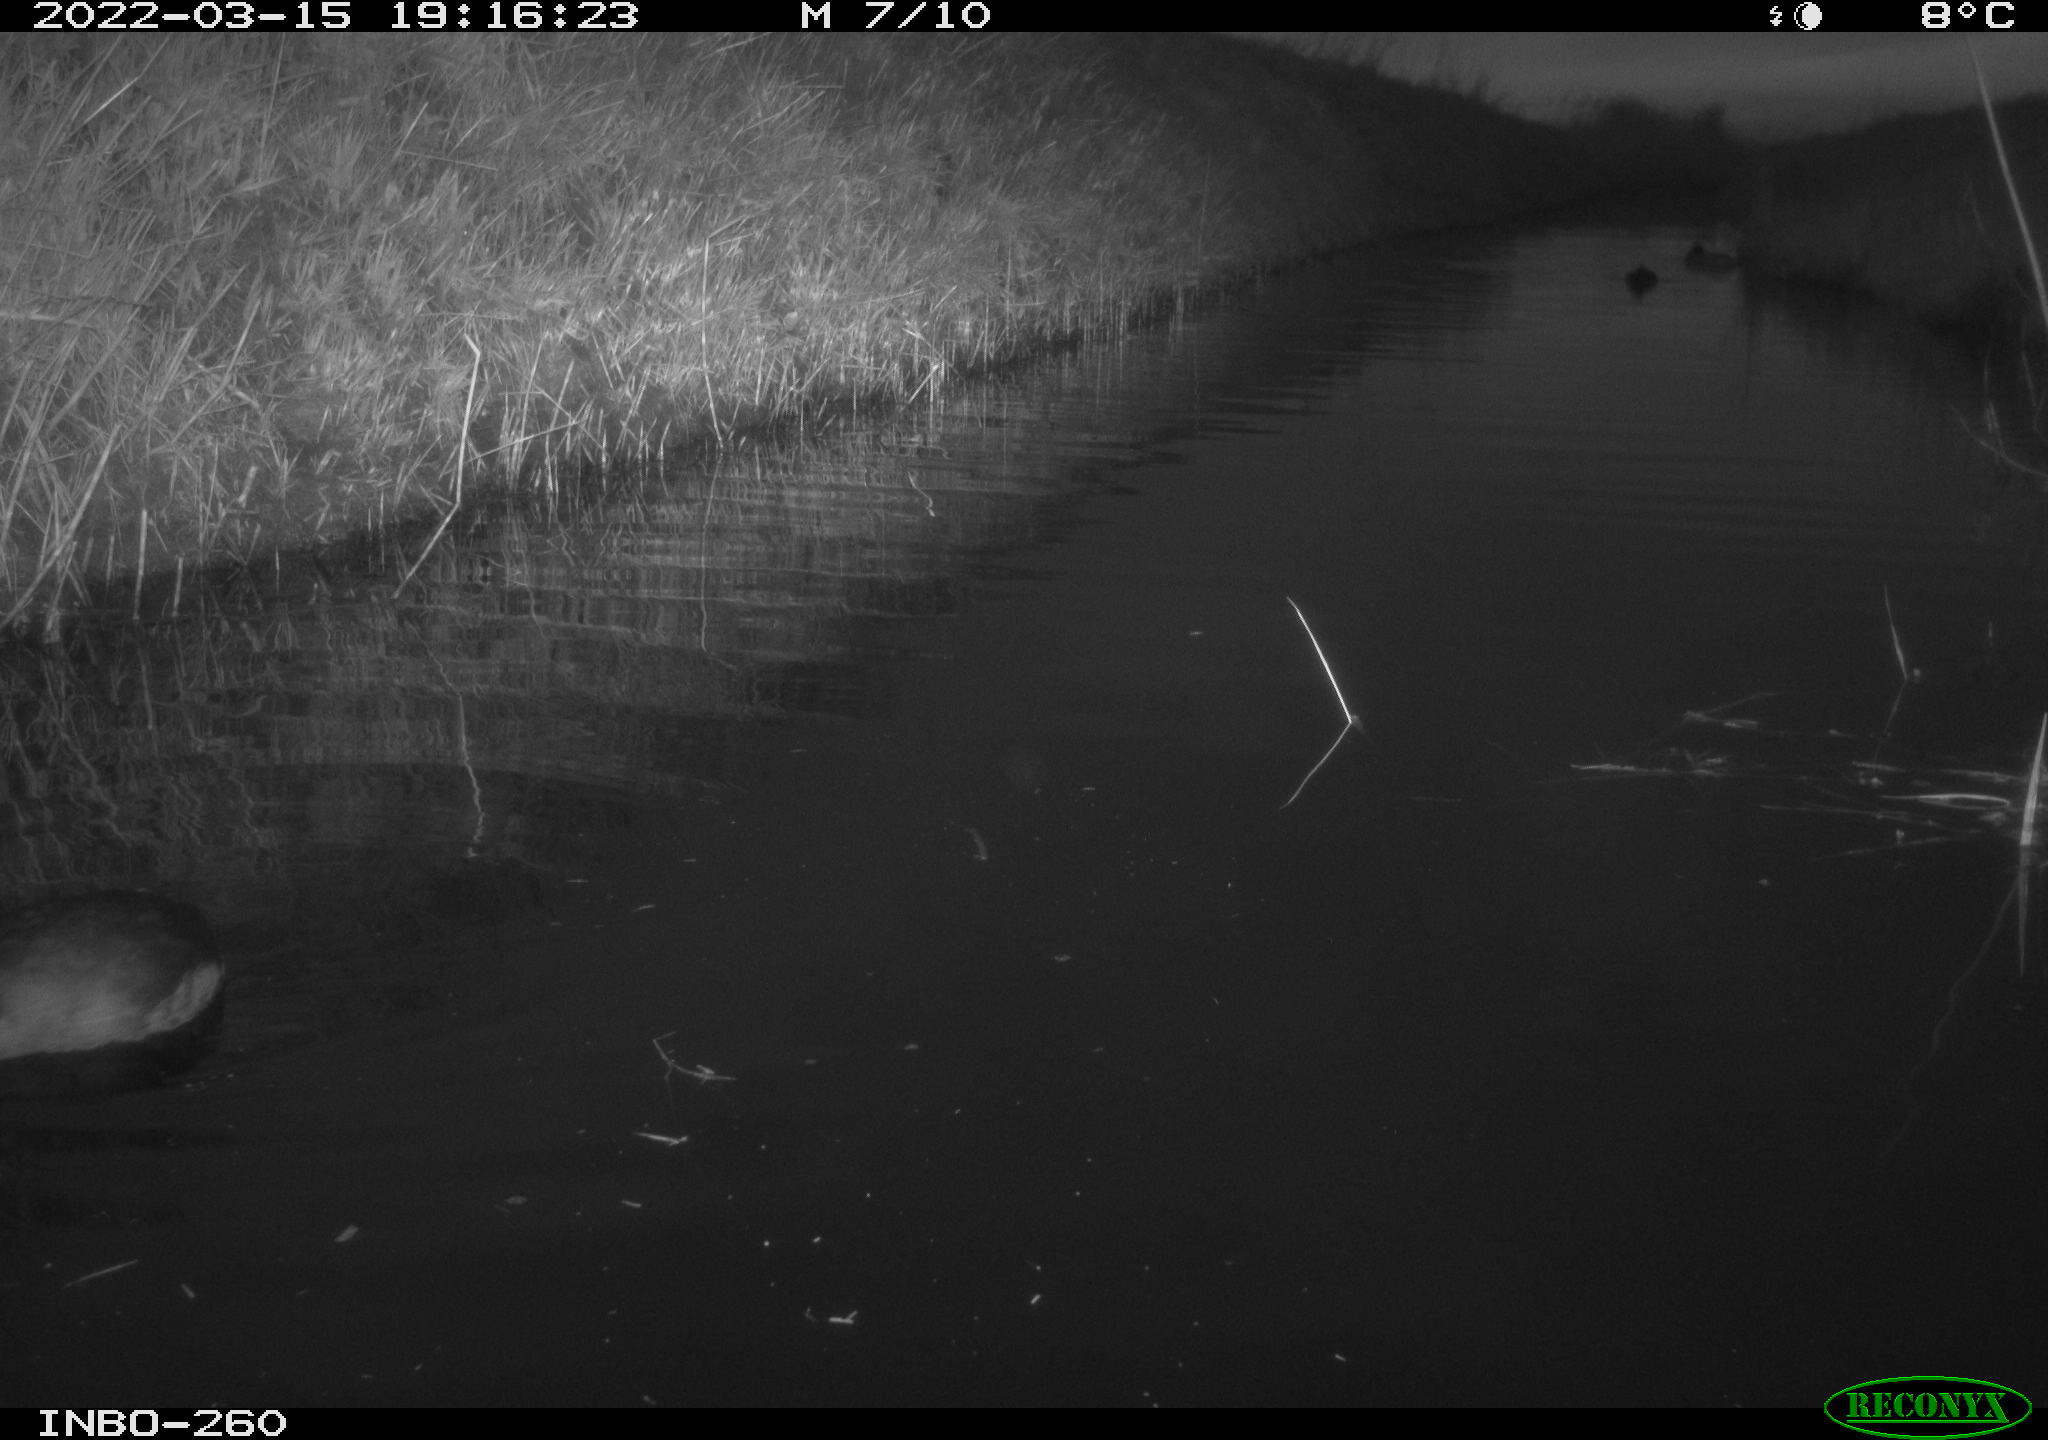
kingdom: Animalia
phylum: Chordata
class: Aves
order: Gruiformes
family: Rallidae
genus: Fulica
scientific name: Fulica atra
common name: Eurasian coot
